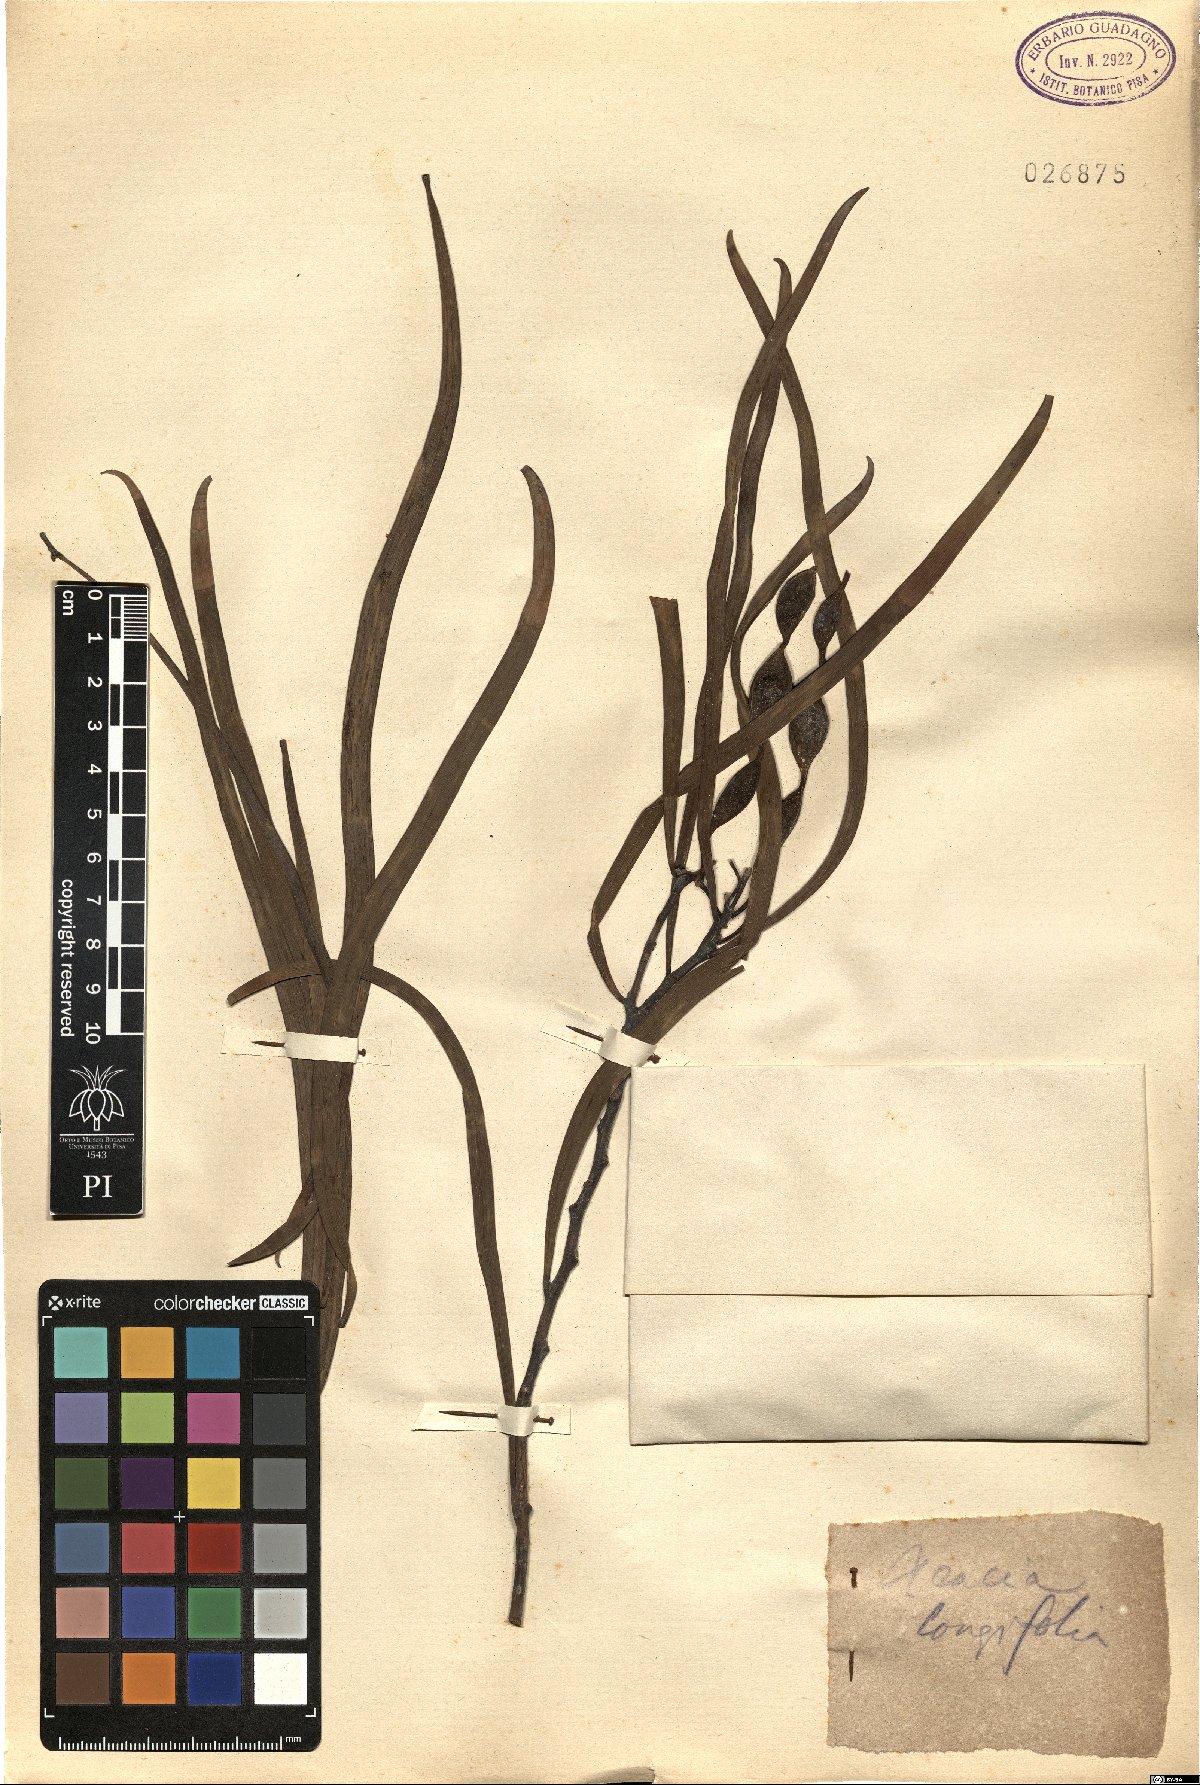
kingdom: Plantae
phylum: Tracheophyta
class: Magnoliopsida
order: Fabales
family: Fabaceae
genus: Acacia
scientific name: Acacia longifolia
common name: Sydney golden wattle
